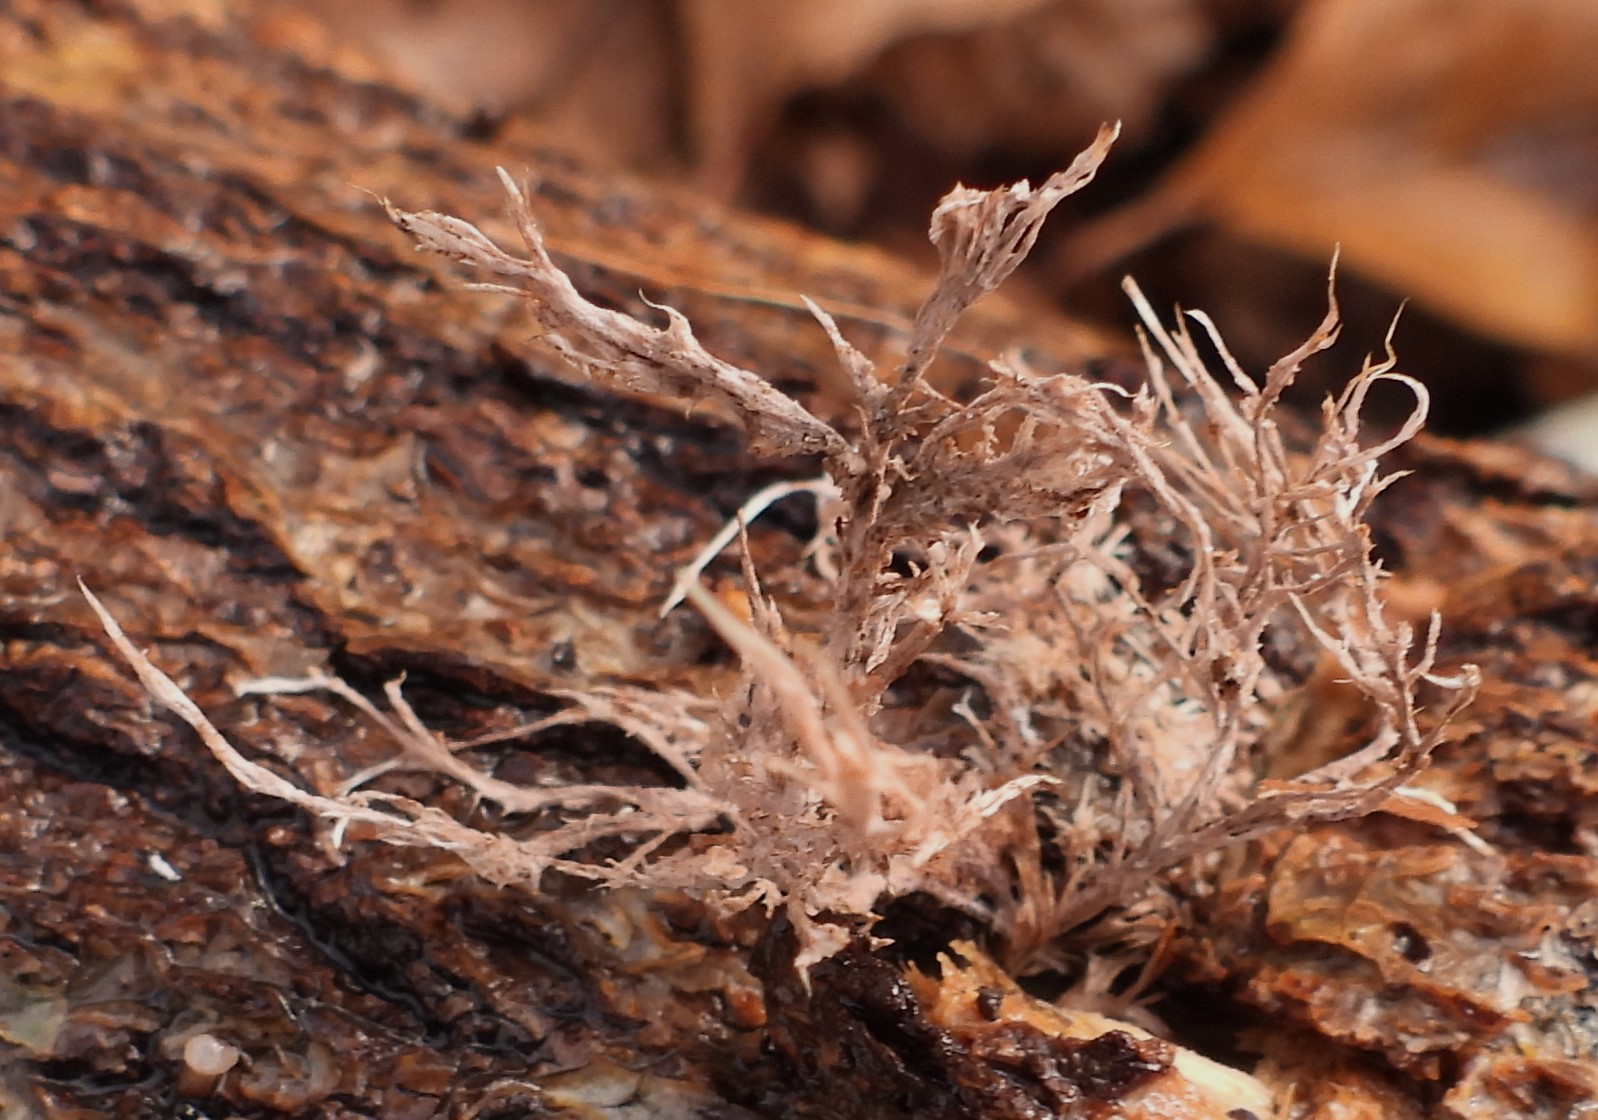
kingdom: Fungi
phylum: Basidiomycota
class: Agaricomycetes
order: Polyporales
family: Steccherinaceae
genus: Steccherinum
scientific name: Steccherinum fimbriatum
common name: trådet skønpig
